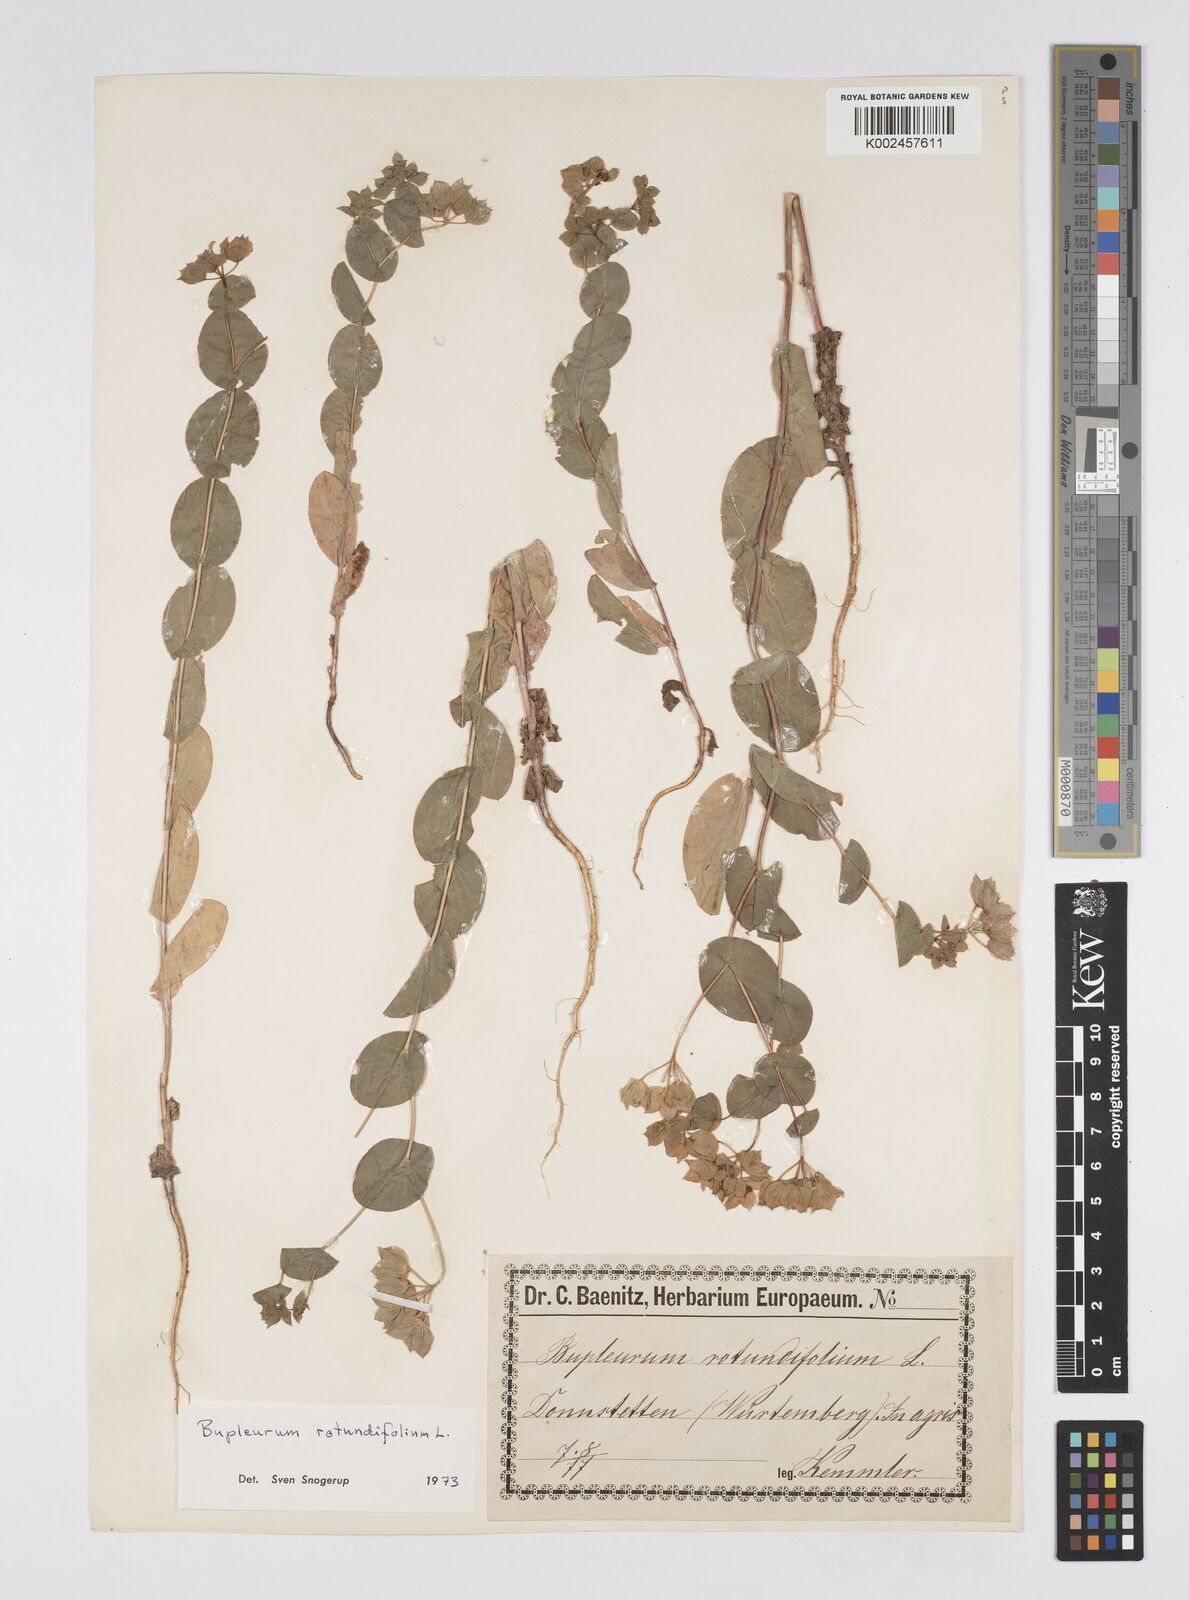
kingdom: Plantae
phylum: Tracheophyta
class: Magnoliopsida
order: Apiales
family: Apiaceae
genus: Bupleurum
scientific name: Bupleurum rotundifolium
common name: Thorow-wax
